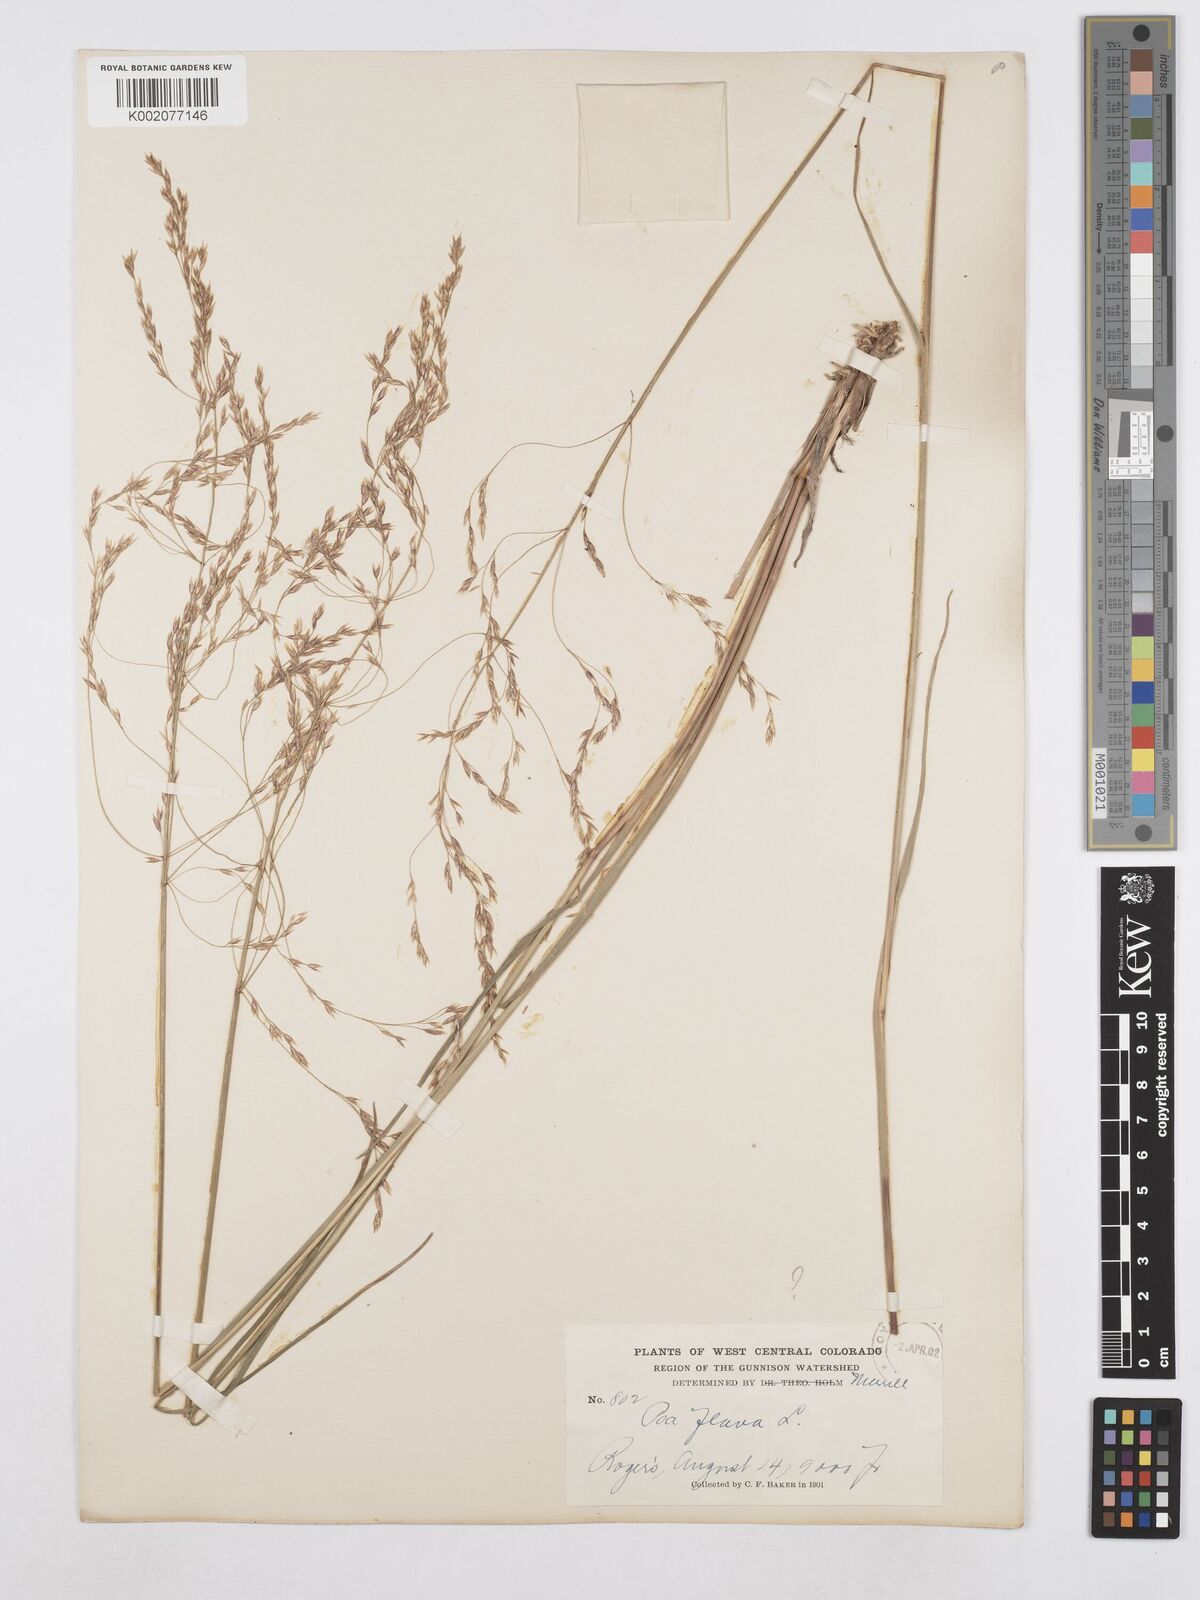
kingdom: Plantae
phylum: Tracheophyta
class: Liliopsida
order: Poales
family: Poaceae
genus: Poa
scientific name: Poa palustris
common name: Swamp meadow-grass
